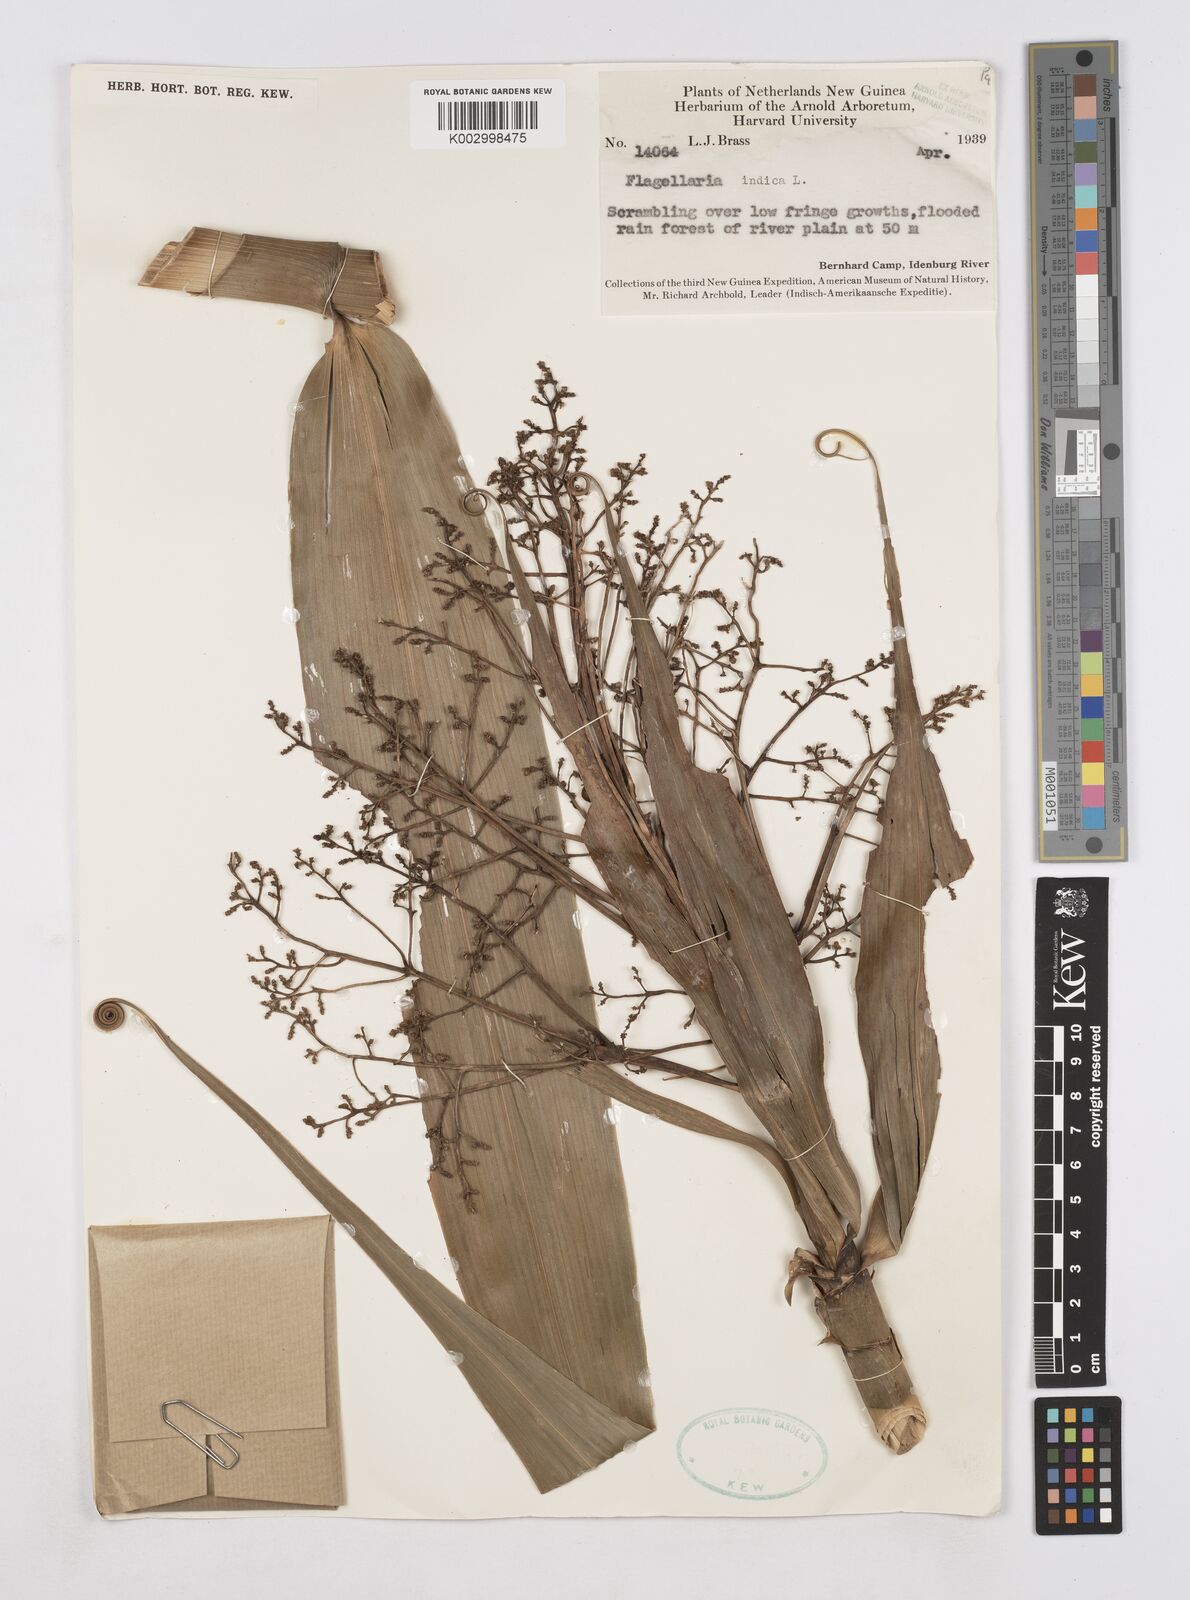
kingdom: Plantae
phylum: Tracheophyta
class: Liliopsida
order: Poales
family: Flagellariaceae
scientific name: Flagellariaceae
